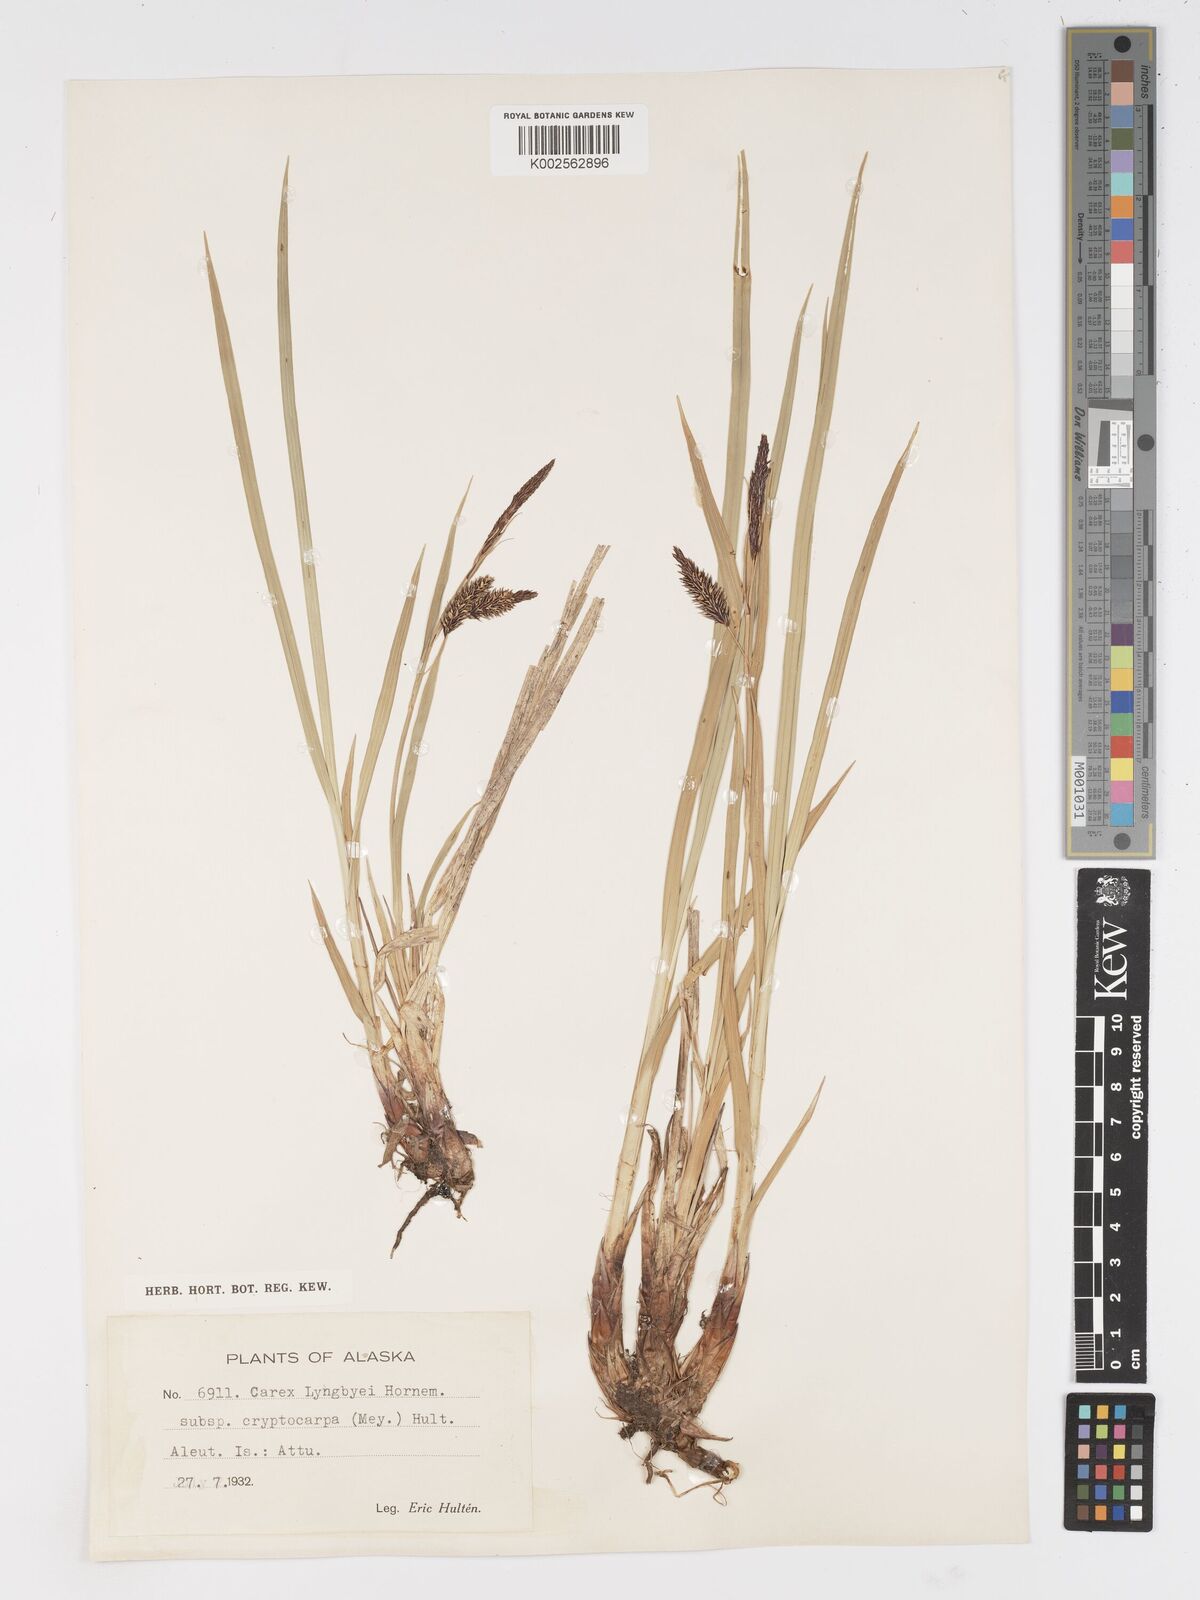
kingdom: Plantae
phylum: Tracheophyta
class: Liliopsida
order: Poales
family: Cyperaceae
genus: Carex
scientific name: Carex lyngbyei
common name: Lyngbye's sedge
